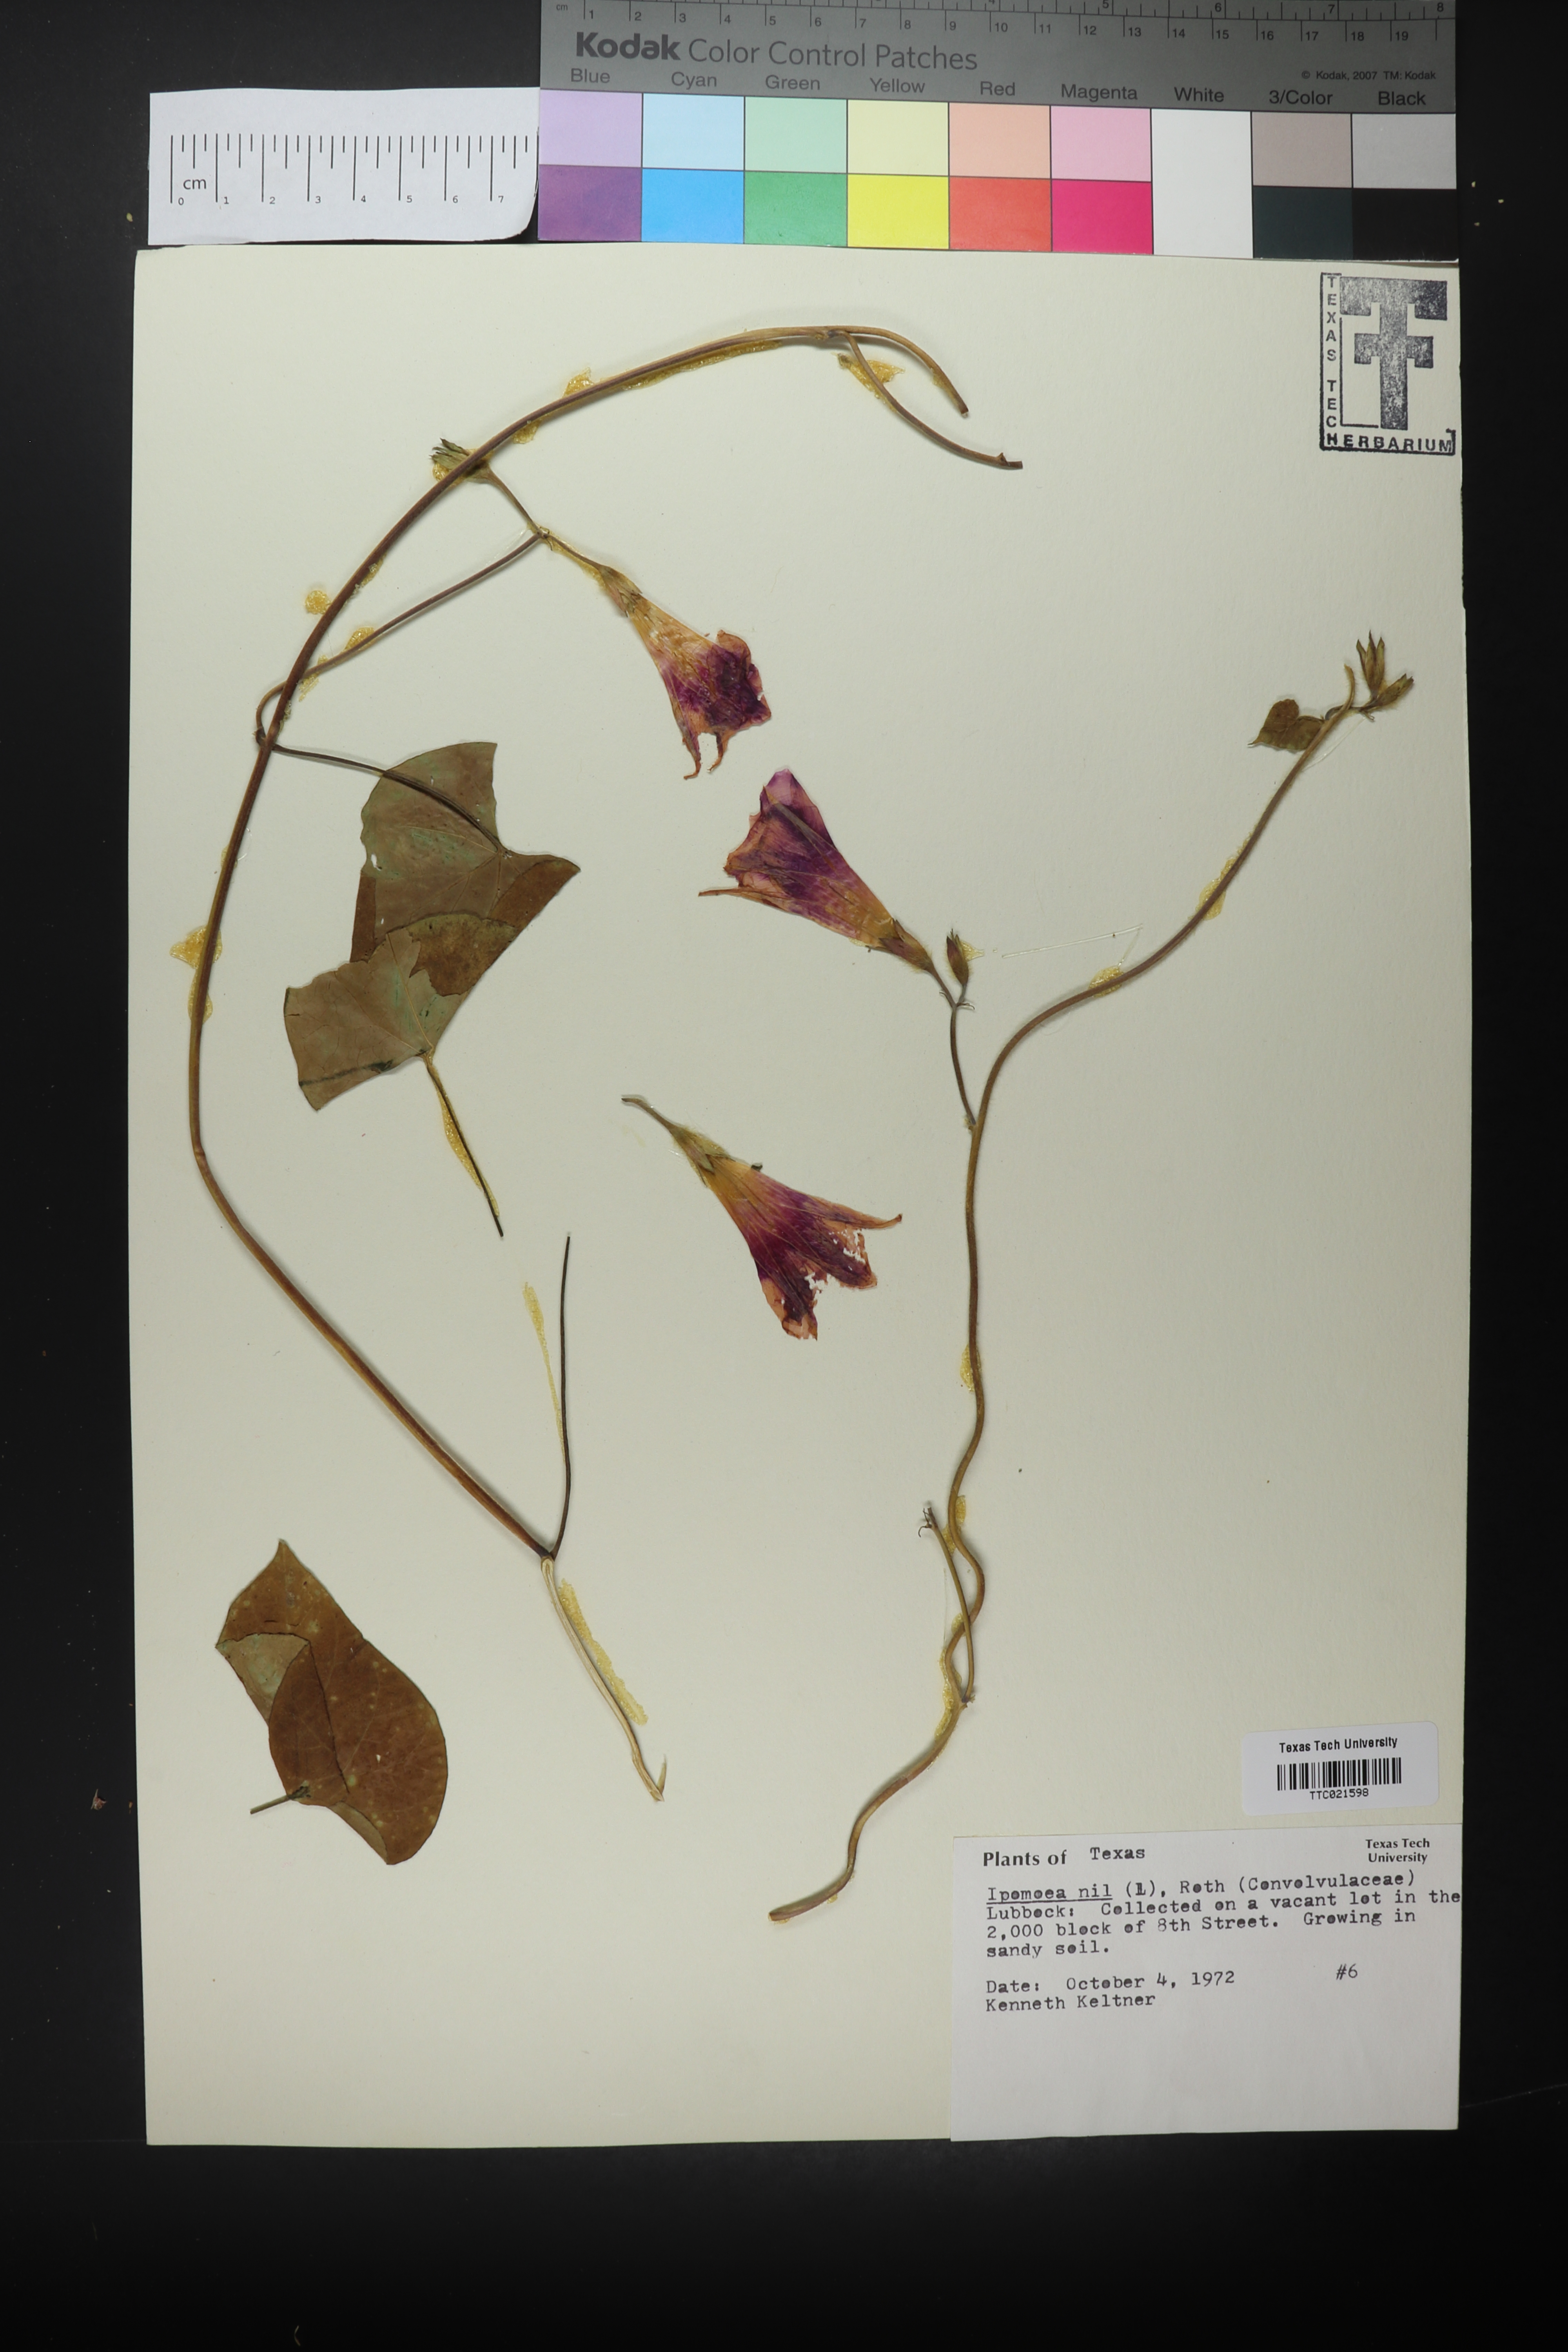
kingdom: Plantae
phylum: Tracheophyta
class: Magnoliopsida
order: Solanales
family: Convolvulaceae
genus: Ipomoea
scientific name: Ipomoea nil
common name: Japanese morning-glory
